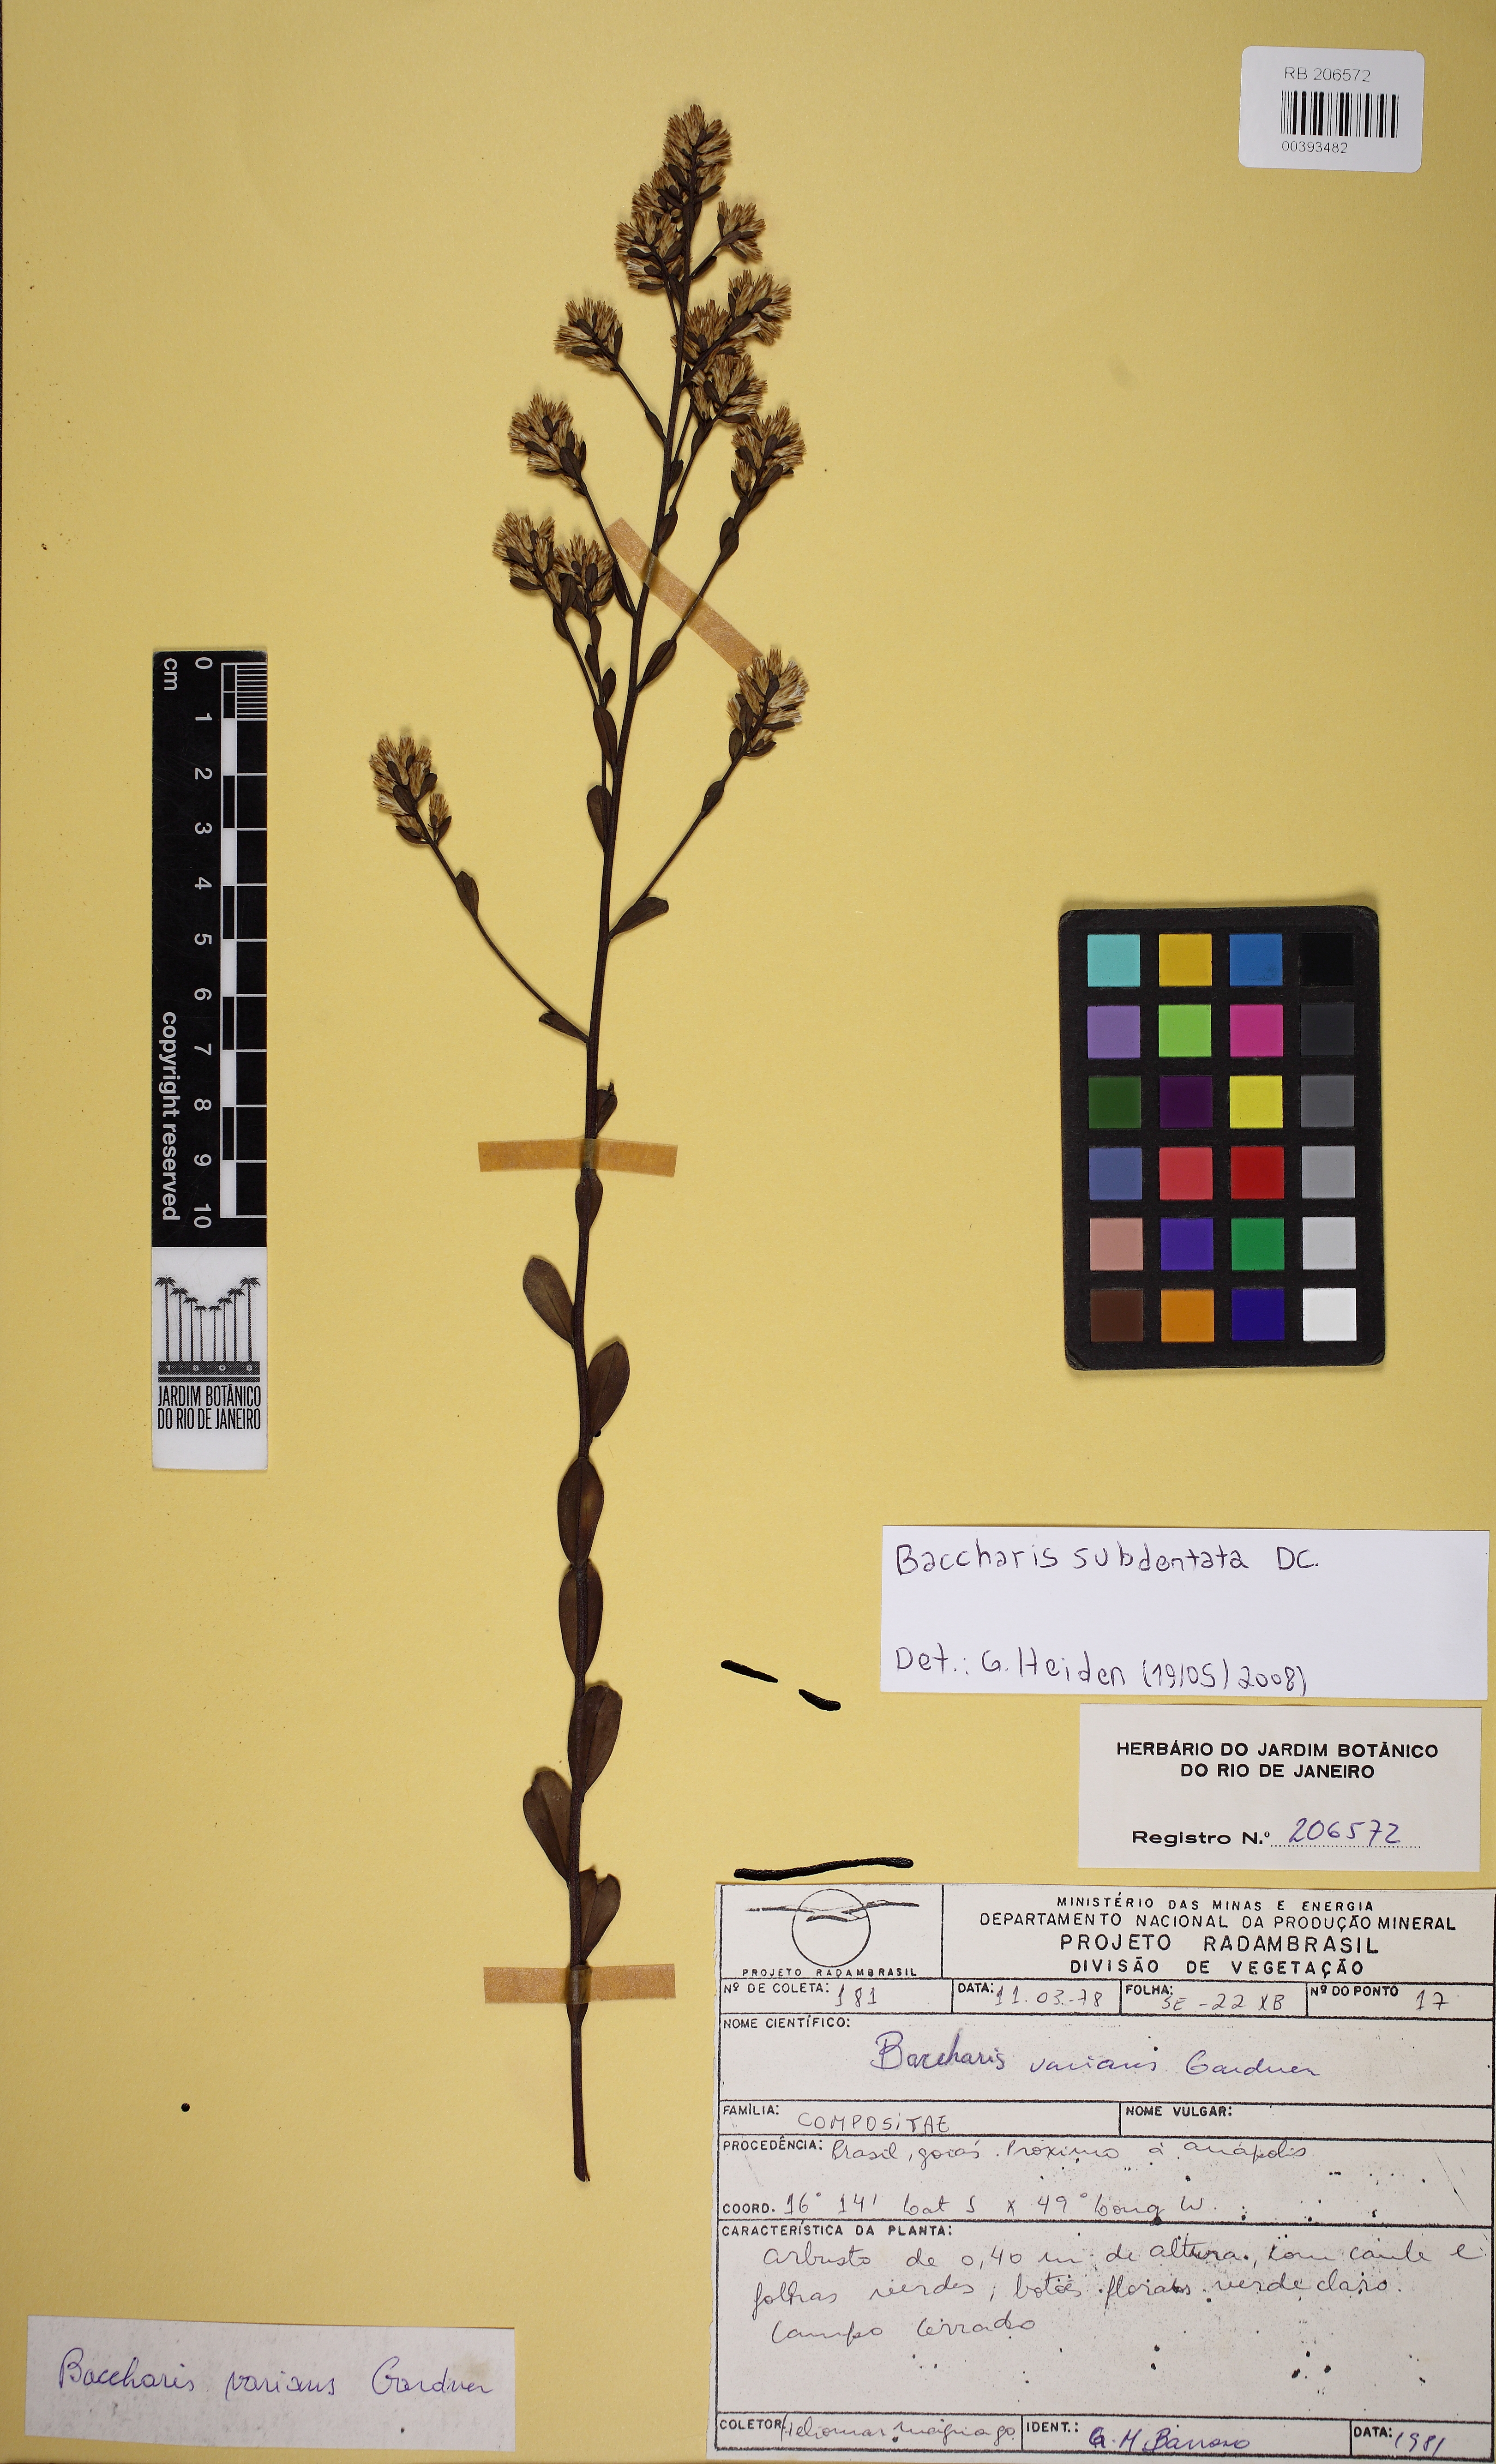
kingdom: Plantae
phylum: Tracheophyta
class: Magnoliopsida
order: Asterales
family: Asteraceae
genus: Baccharis
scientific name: Baccharis subdentata
